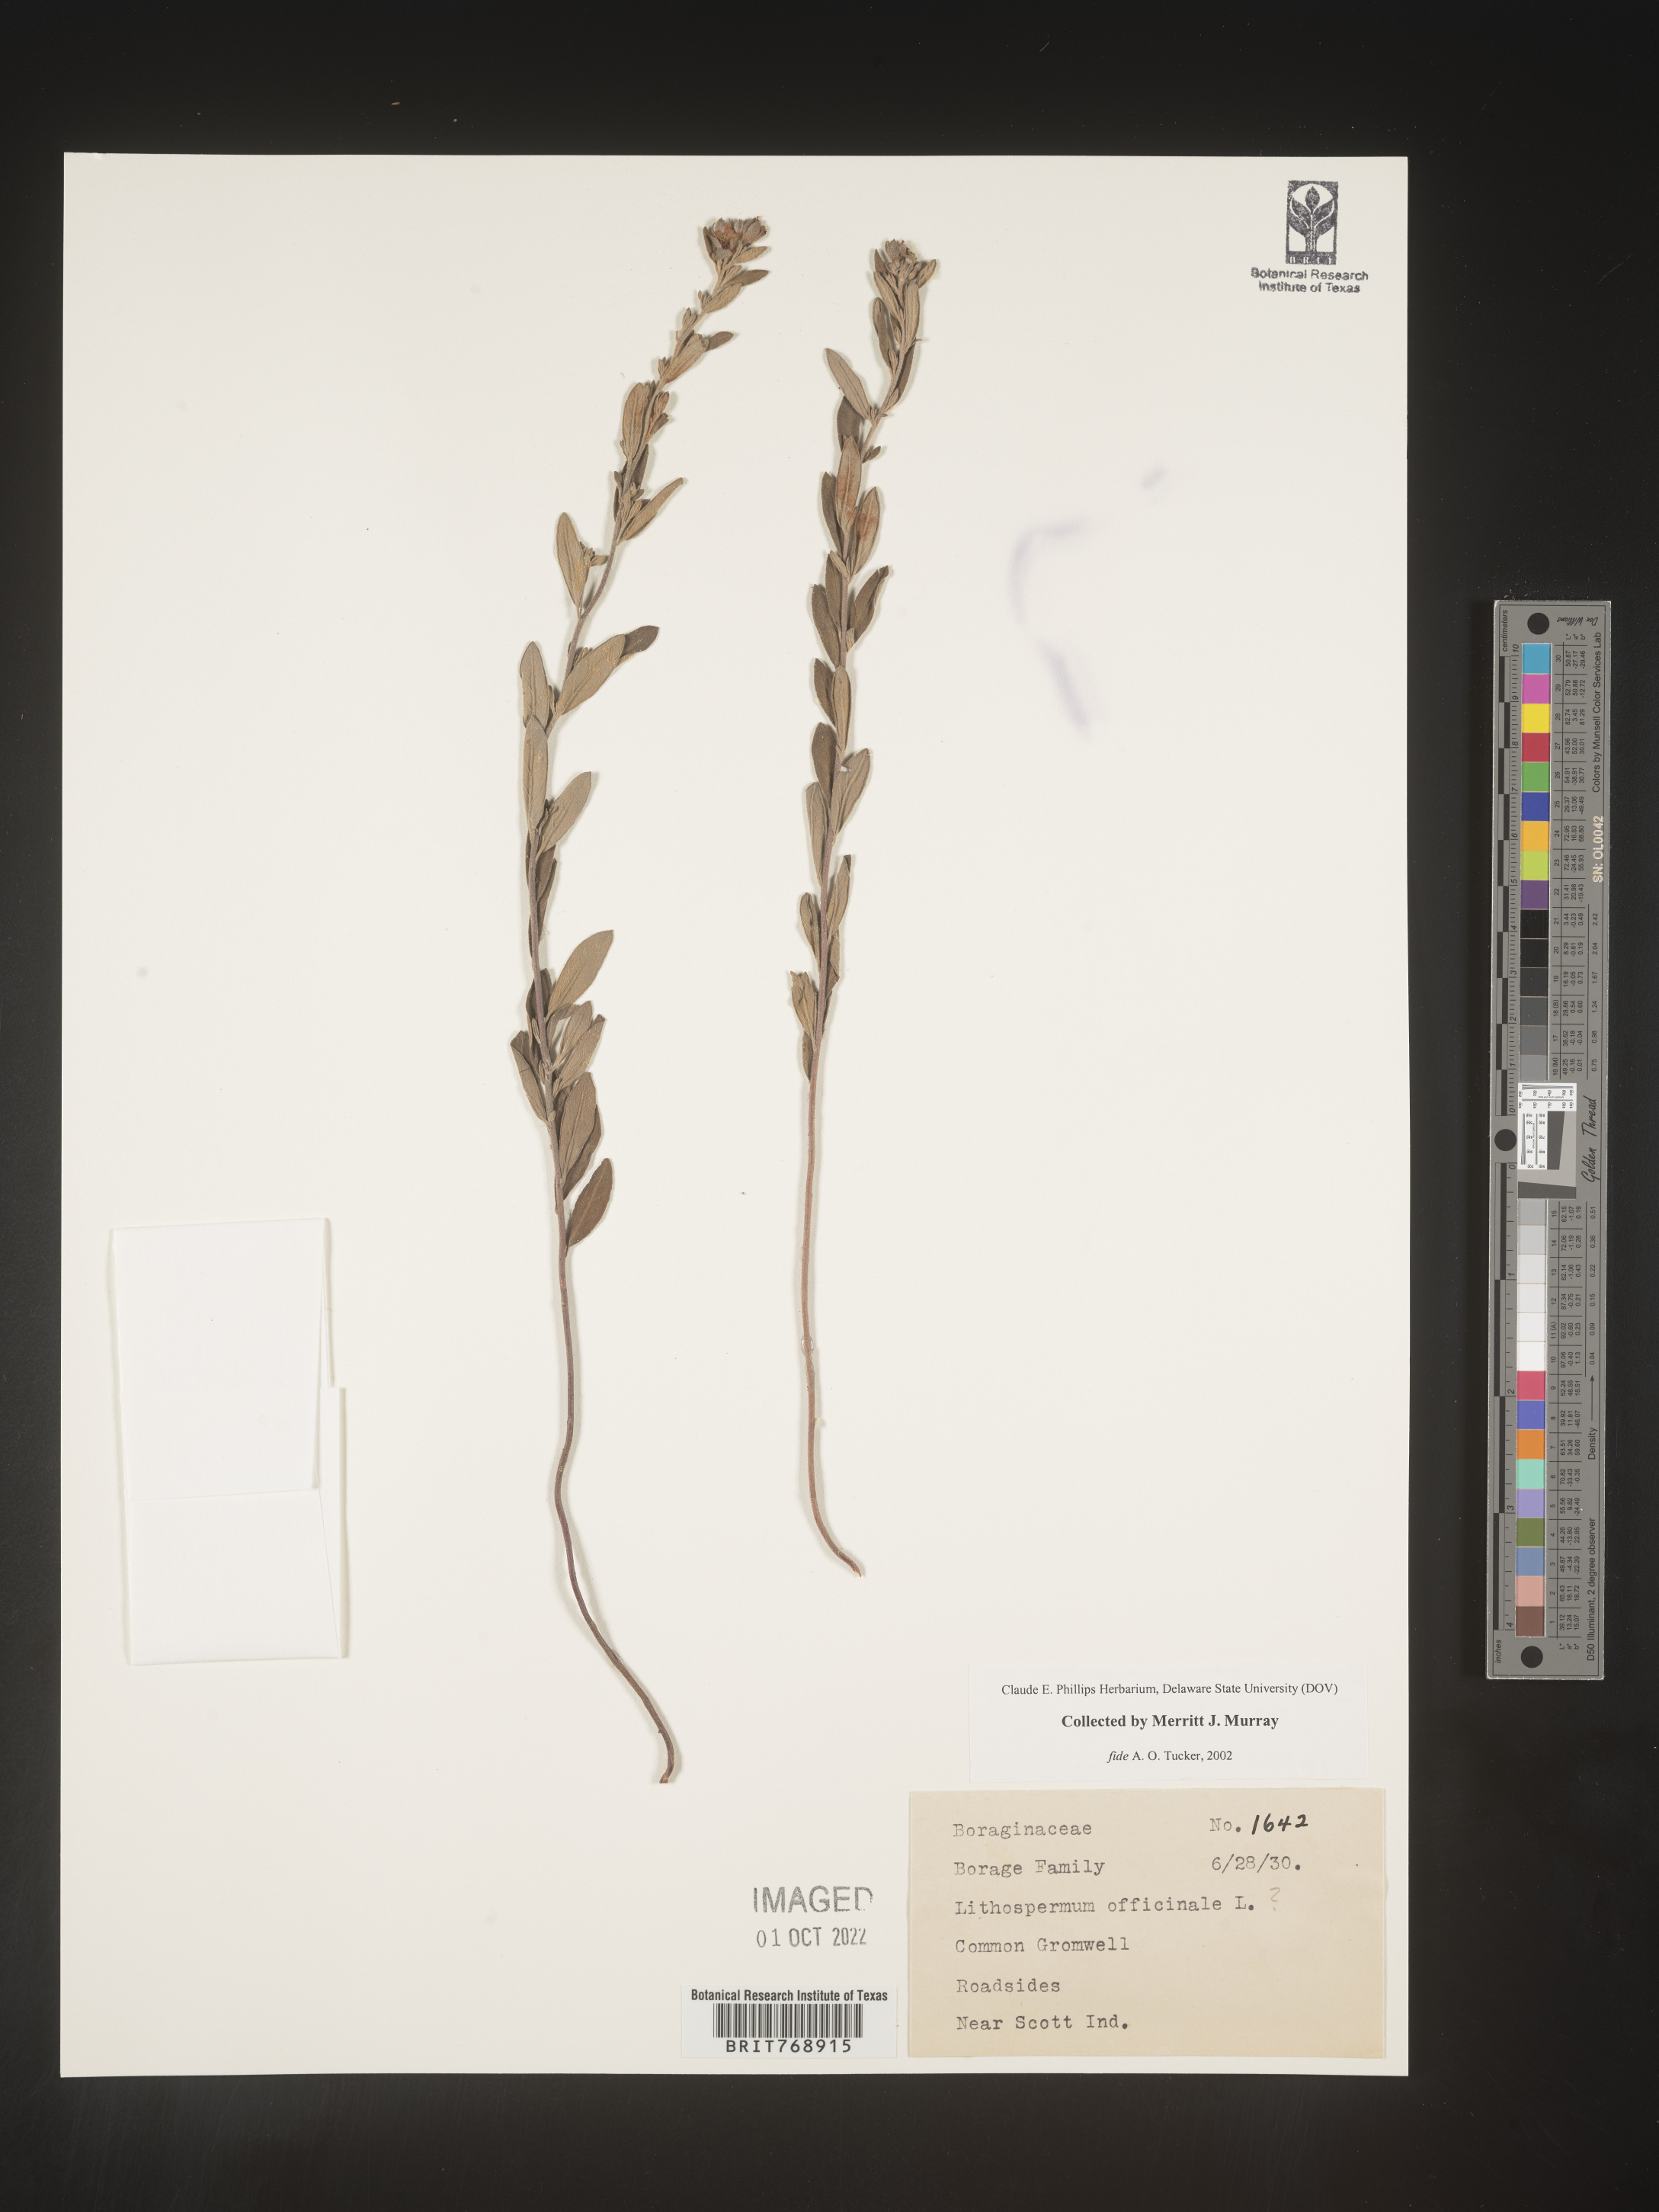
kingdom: Plantae
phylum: Tracheophyta
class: Magnoliopsida
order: Boraginales
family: Boraginaceae
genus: Lithospermum
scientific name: Lithospermum
